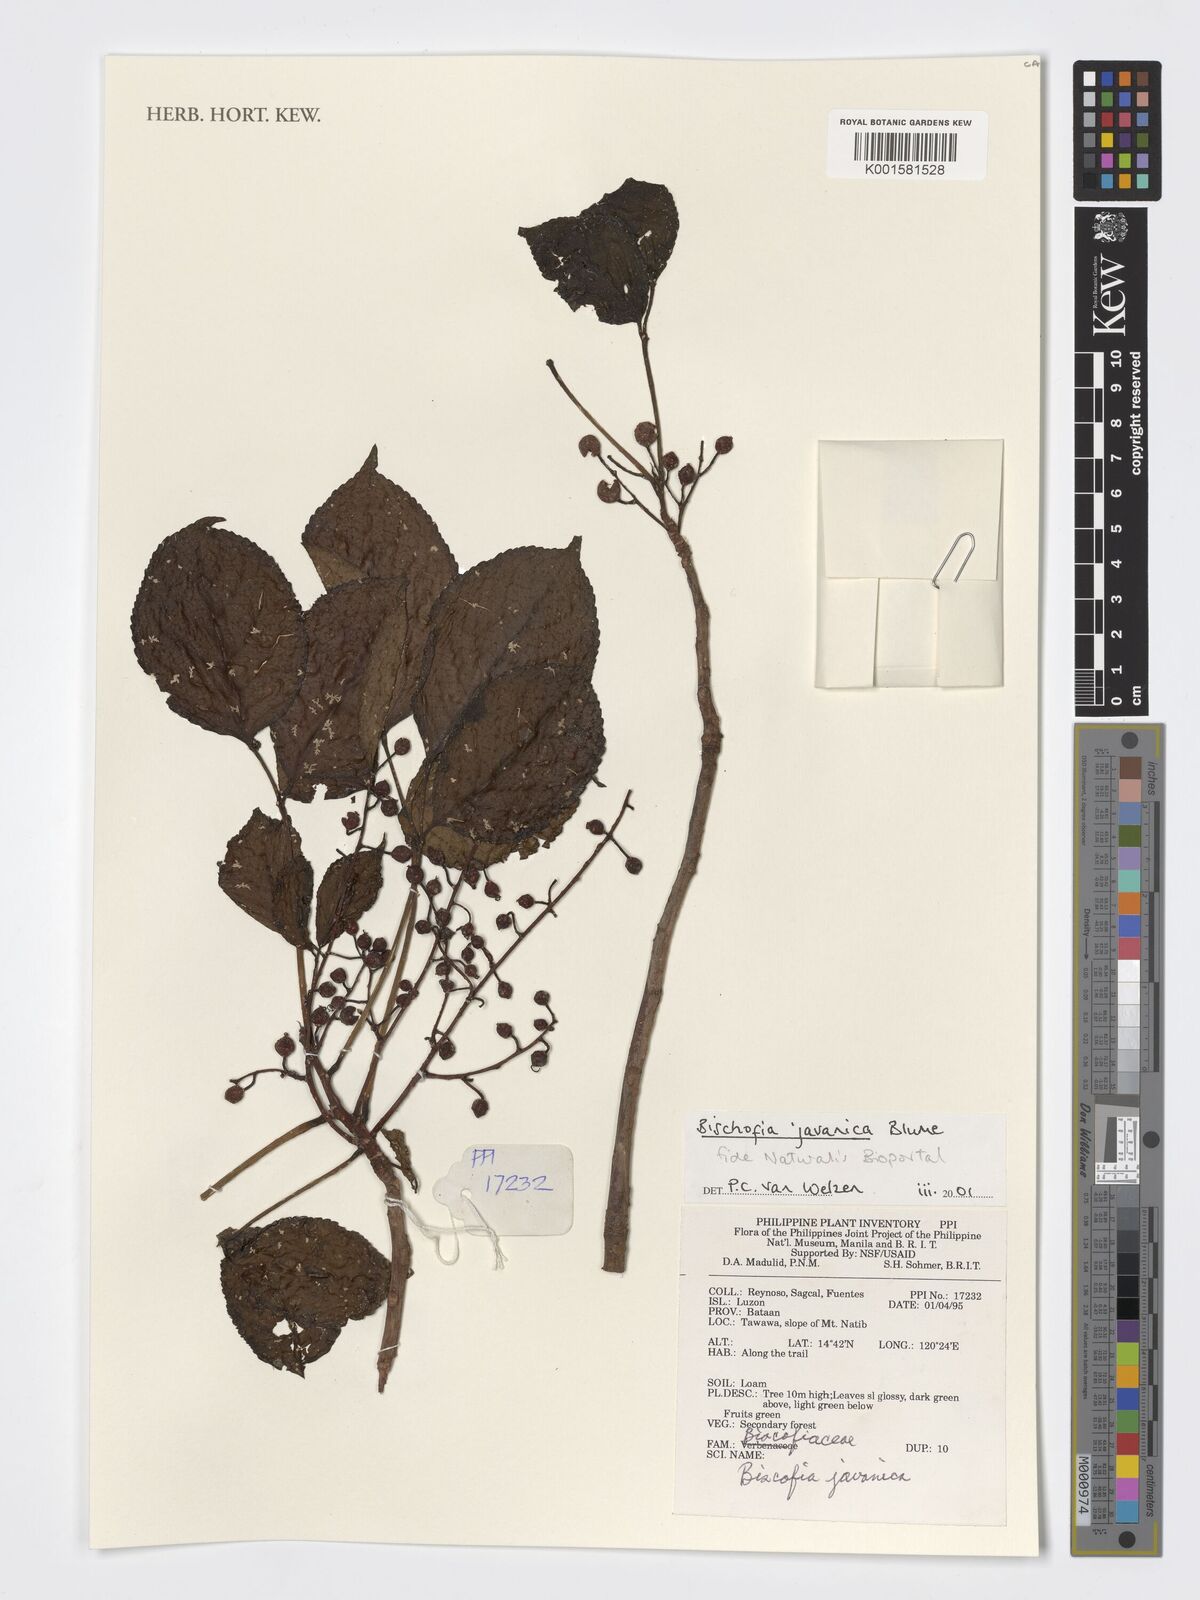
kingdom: Plantae
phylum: Tracheophyta
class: Magnoliopsida
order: Malpighiales
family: Phyllanthaceae
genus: Bischofia
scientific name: Bischofia javanica
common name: Javanese bishopwood
